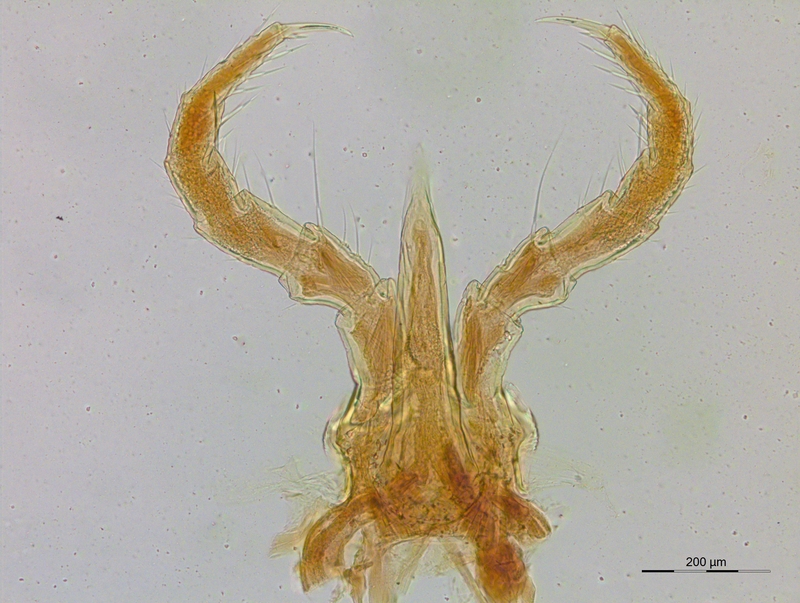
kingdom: Animalia
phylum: Arthropoda
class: Diplopoda
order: Julida
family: Blaniulidae
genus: Typhloblaniulus
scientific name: Typhloblaniulus
